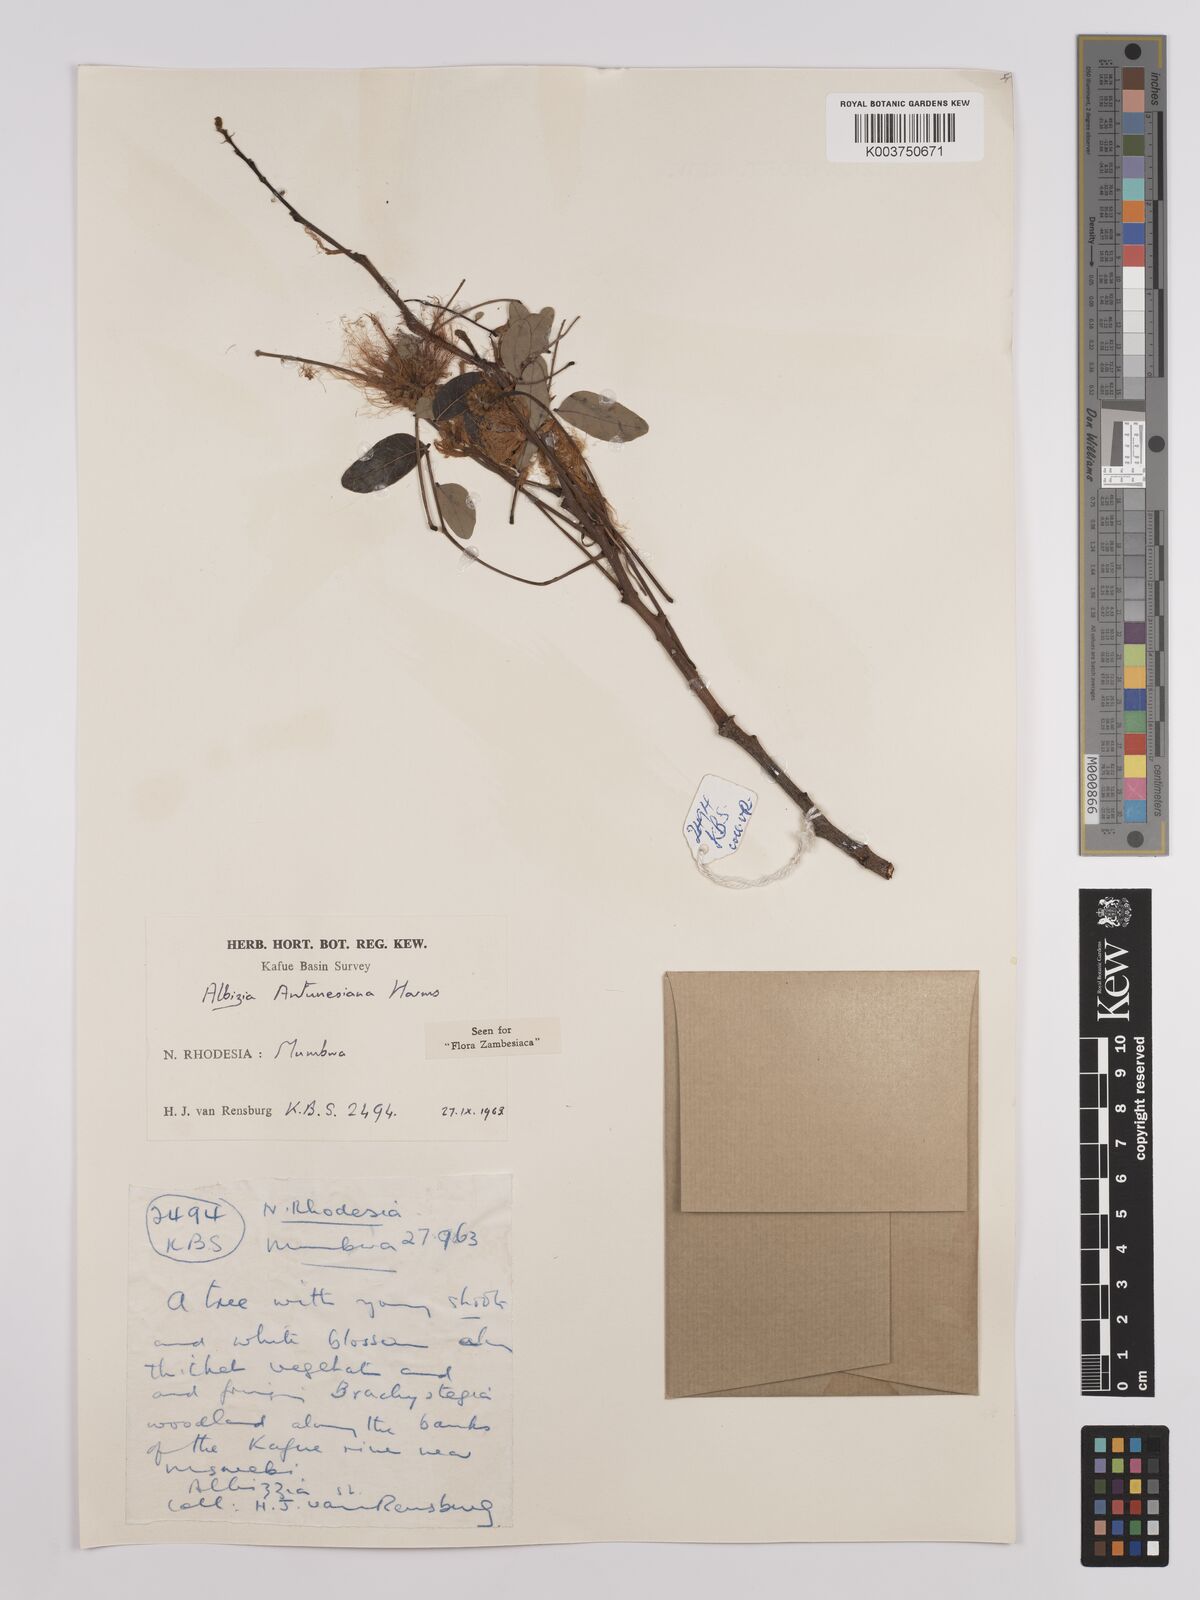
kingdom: Plantae
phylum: Tracheophyta
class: Magnoliopsida
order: Fabales
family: Fabaceae
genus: Albizia
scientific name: Albizia antunesiana
